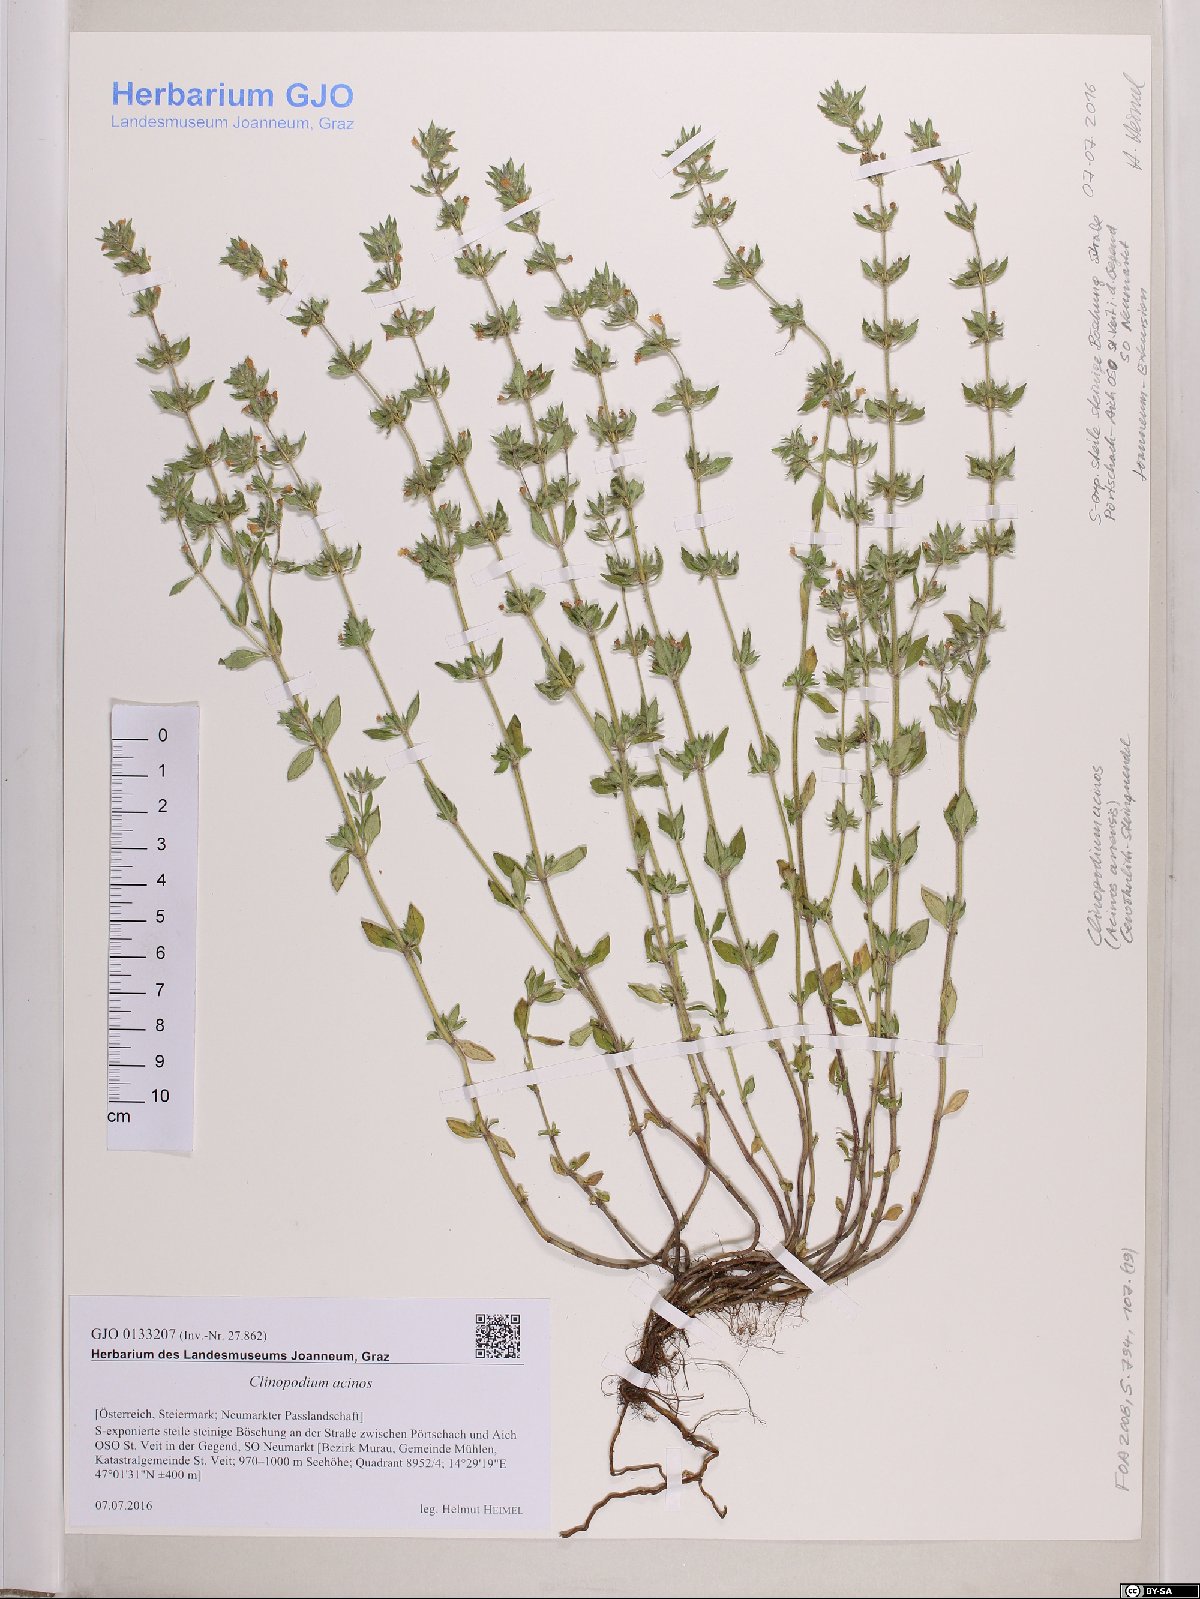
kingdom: Plantae
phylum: Tracheophyta
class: Magnoliopsida
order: Lamiales
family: Lamiaceae
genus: Clinopodium
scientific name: Clinopodium acinos
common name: Basil thyme
